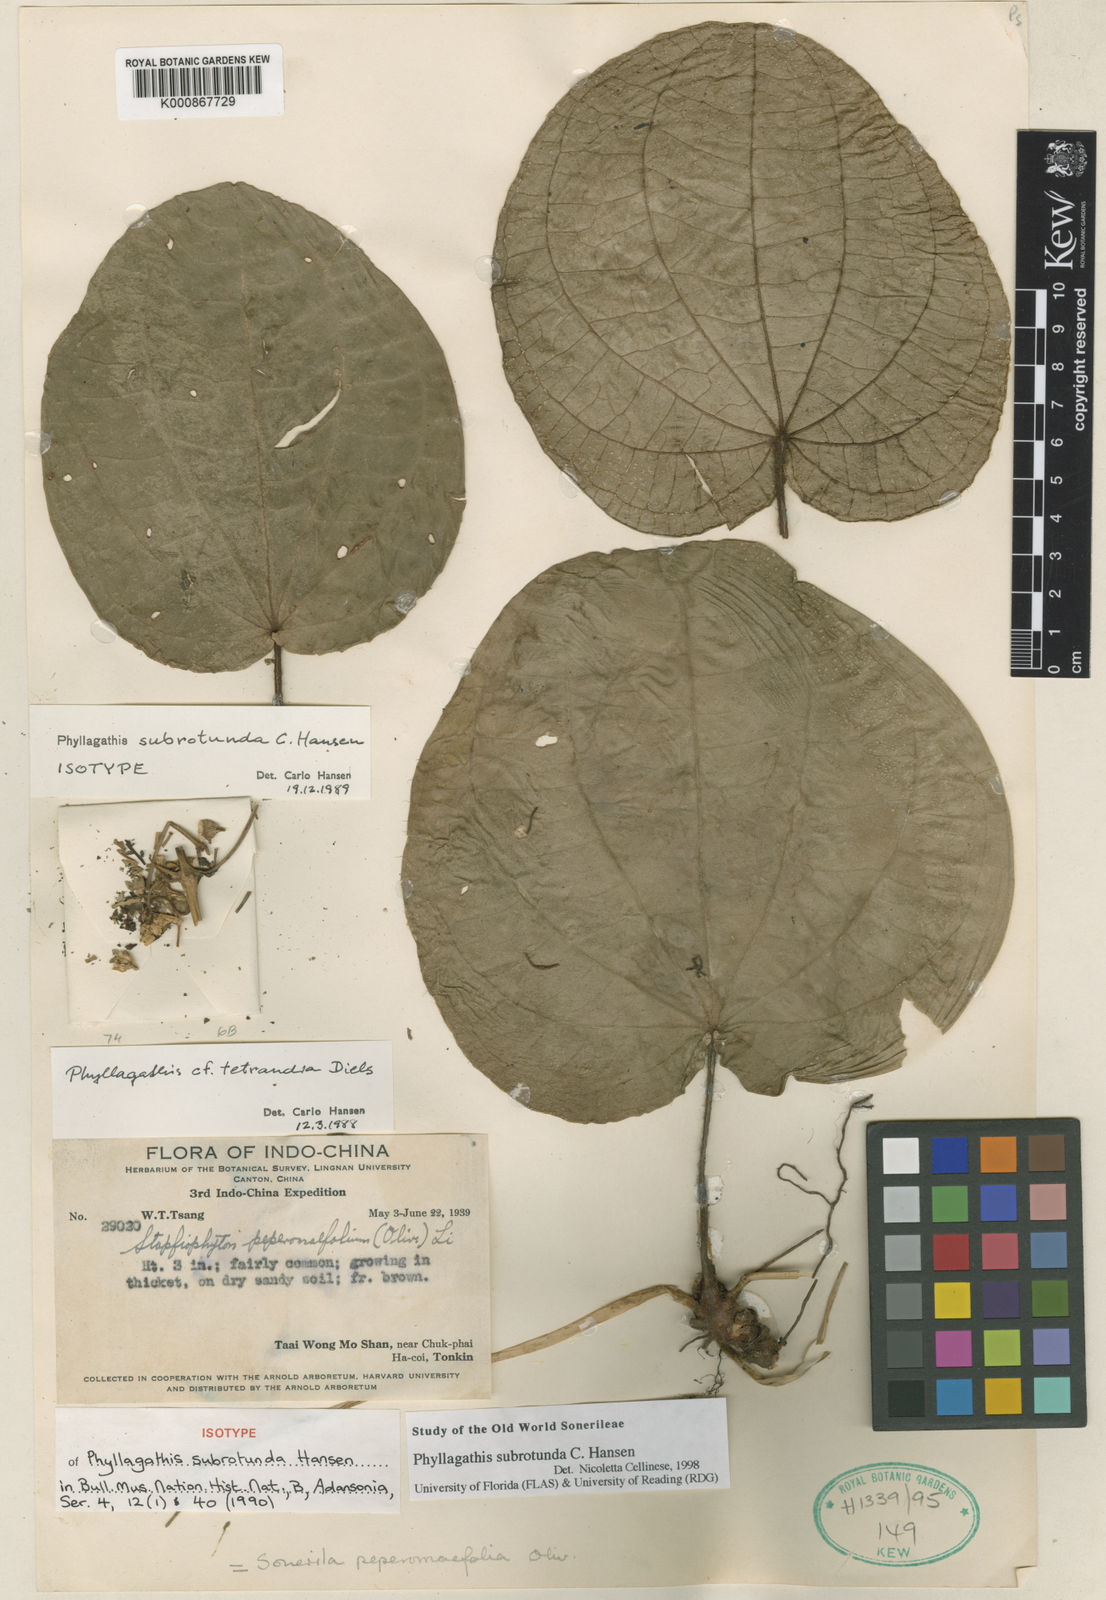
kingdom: Plantae
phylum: Tracheophyta
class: Magnoliopsida
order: Myrtales
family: Melastomataceae
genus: Phyllagathis
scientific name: Phyllagathis subrotunda
